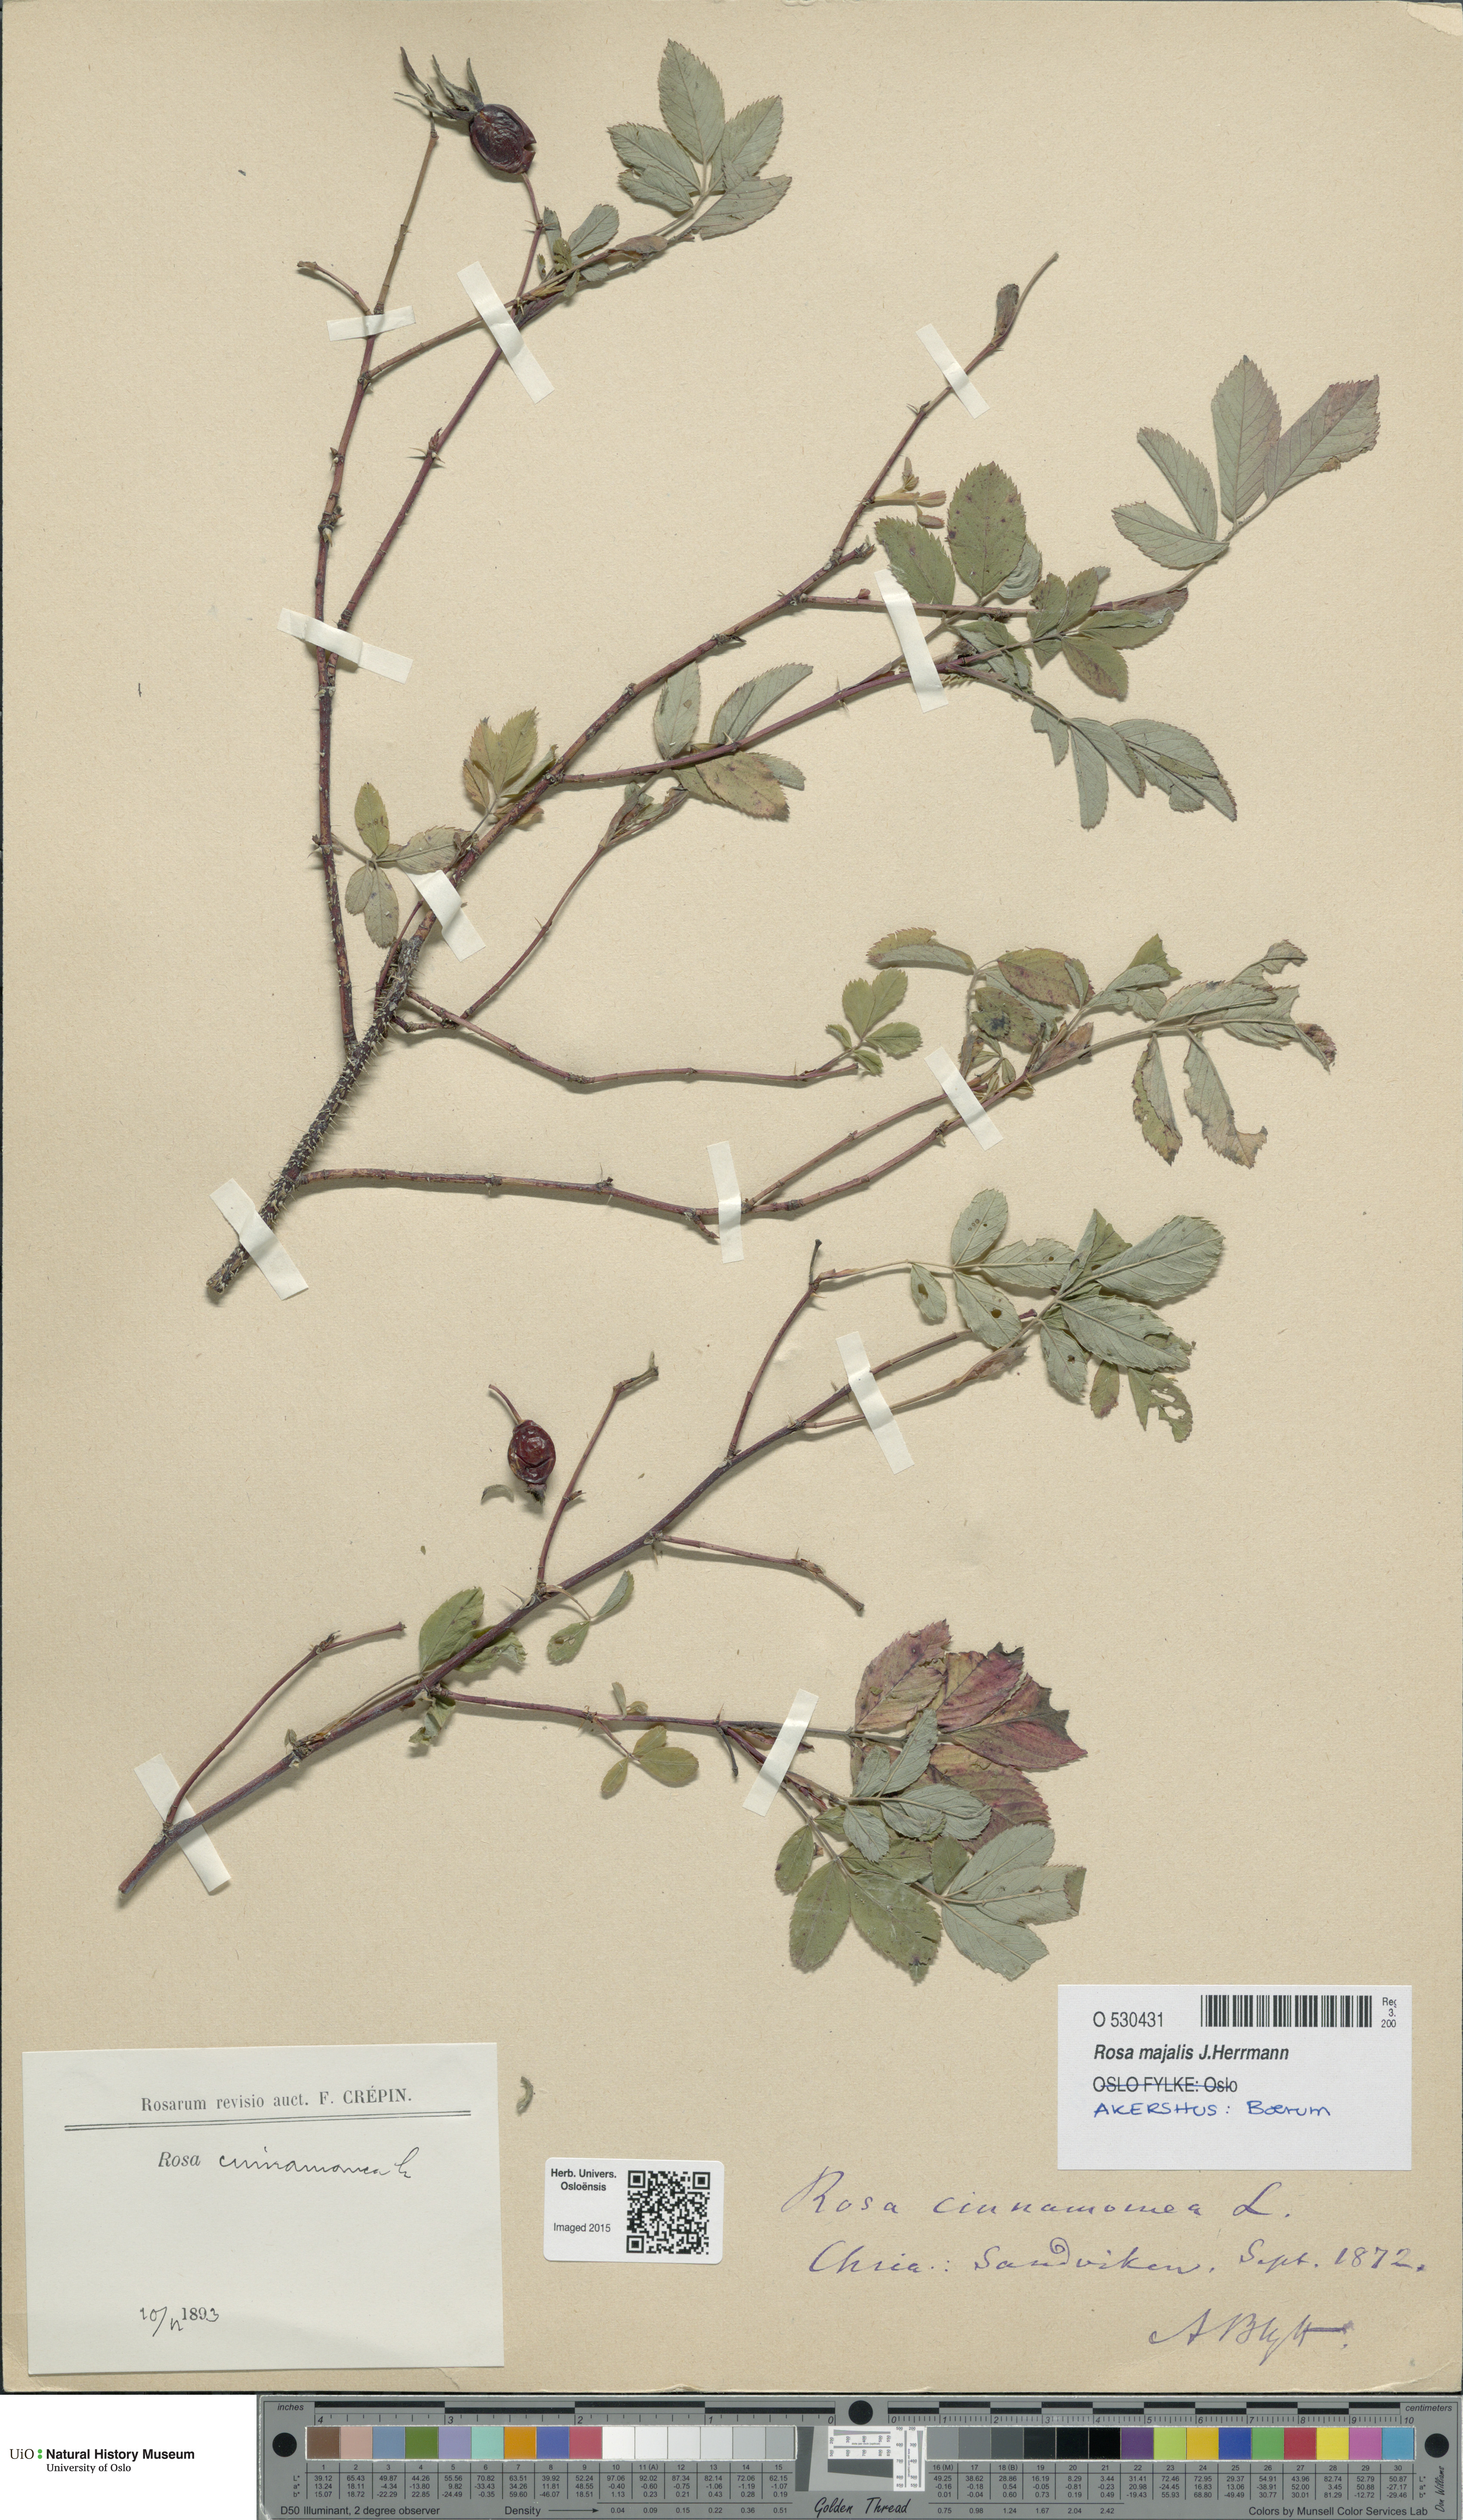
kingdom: Plantae
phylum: Tracheophyta
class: Magnoliopsida
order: Rosales
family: Rosaceae
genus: Rosa
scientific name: Rosa pendulina
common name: Alpine rose
